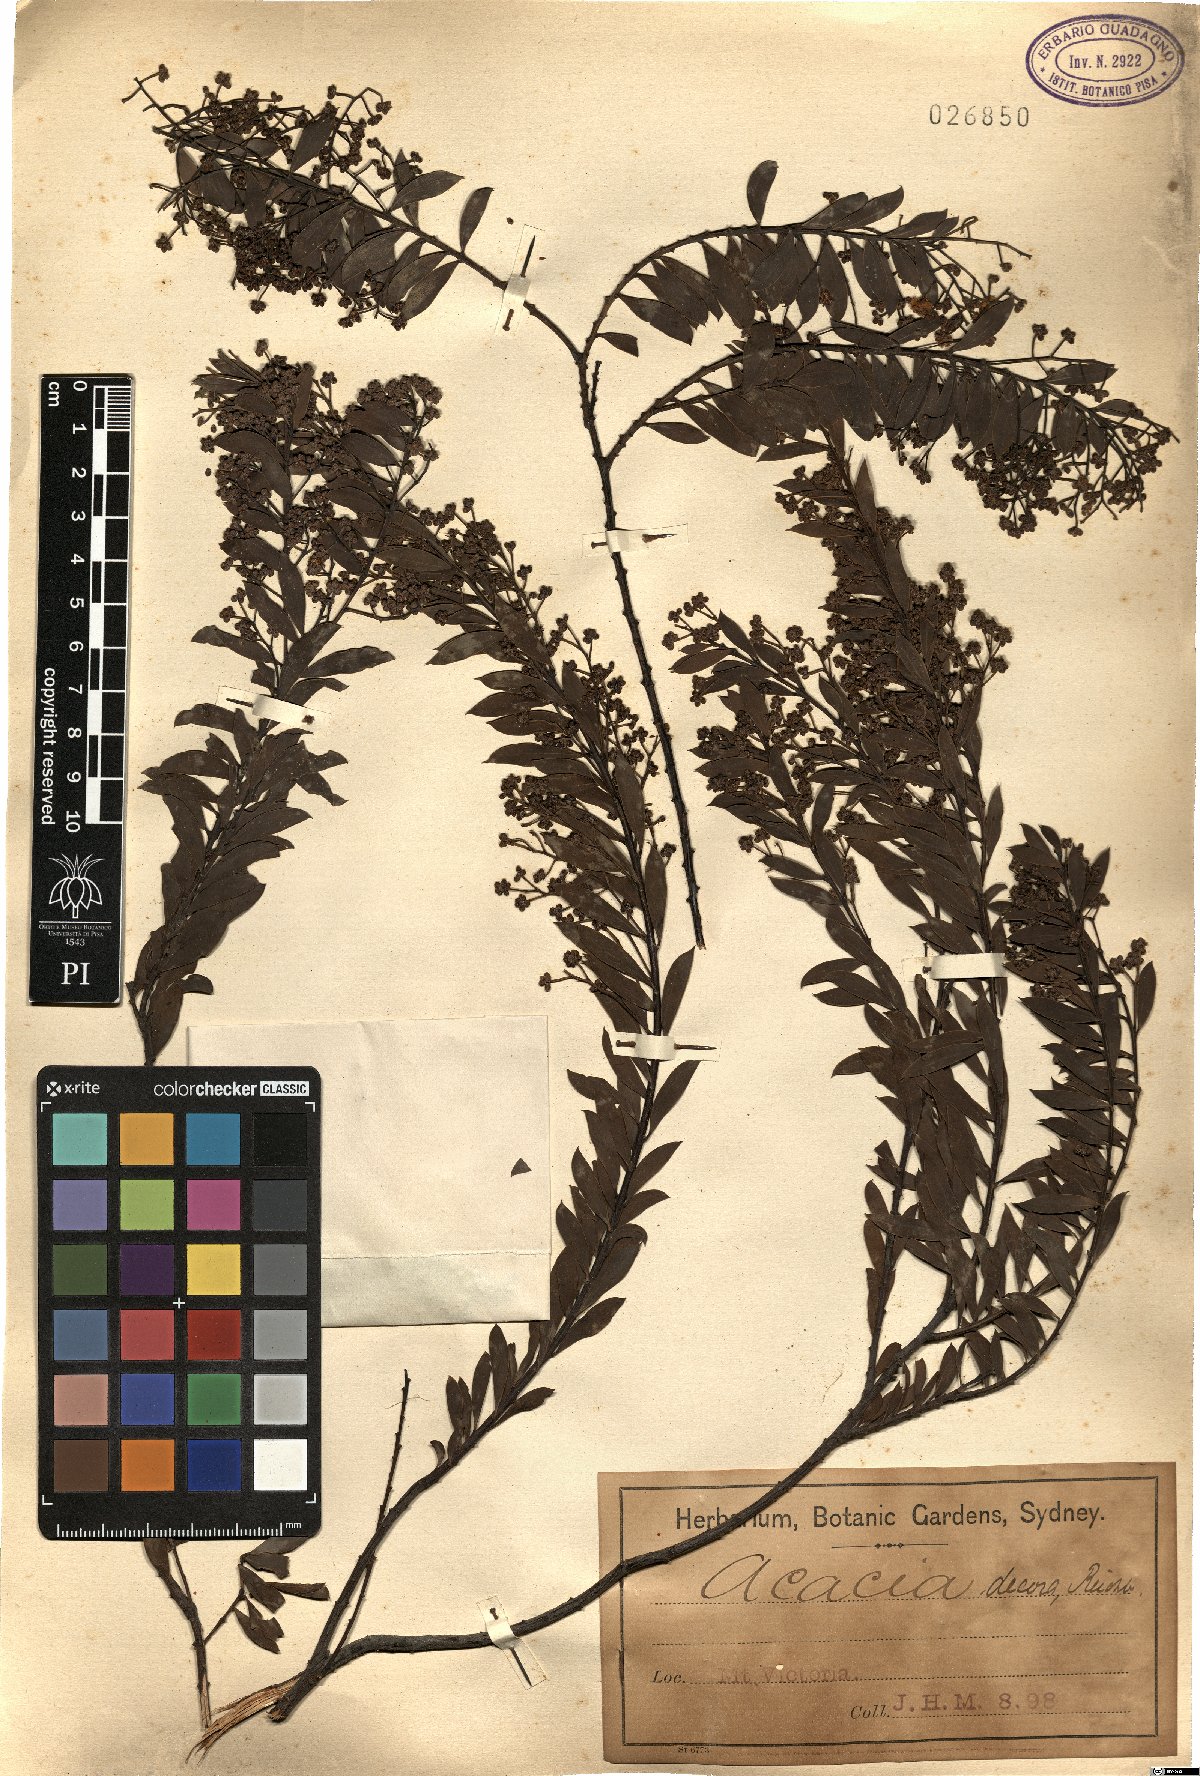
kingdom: Plantae
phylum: Tracheophyta
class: Magnoliopsida
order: Fabales
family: Fabaceae
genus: Acacia
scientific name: Acacia decora
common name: Showy wattle
